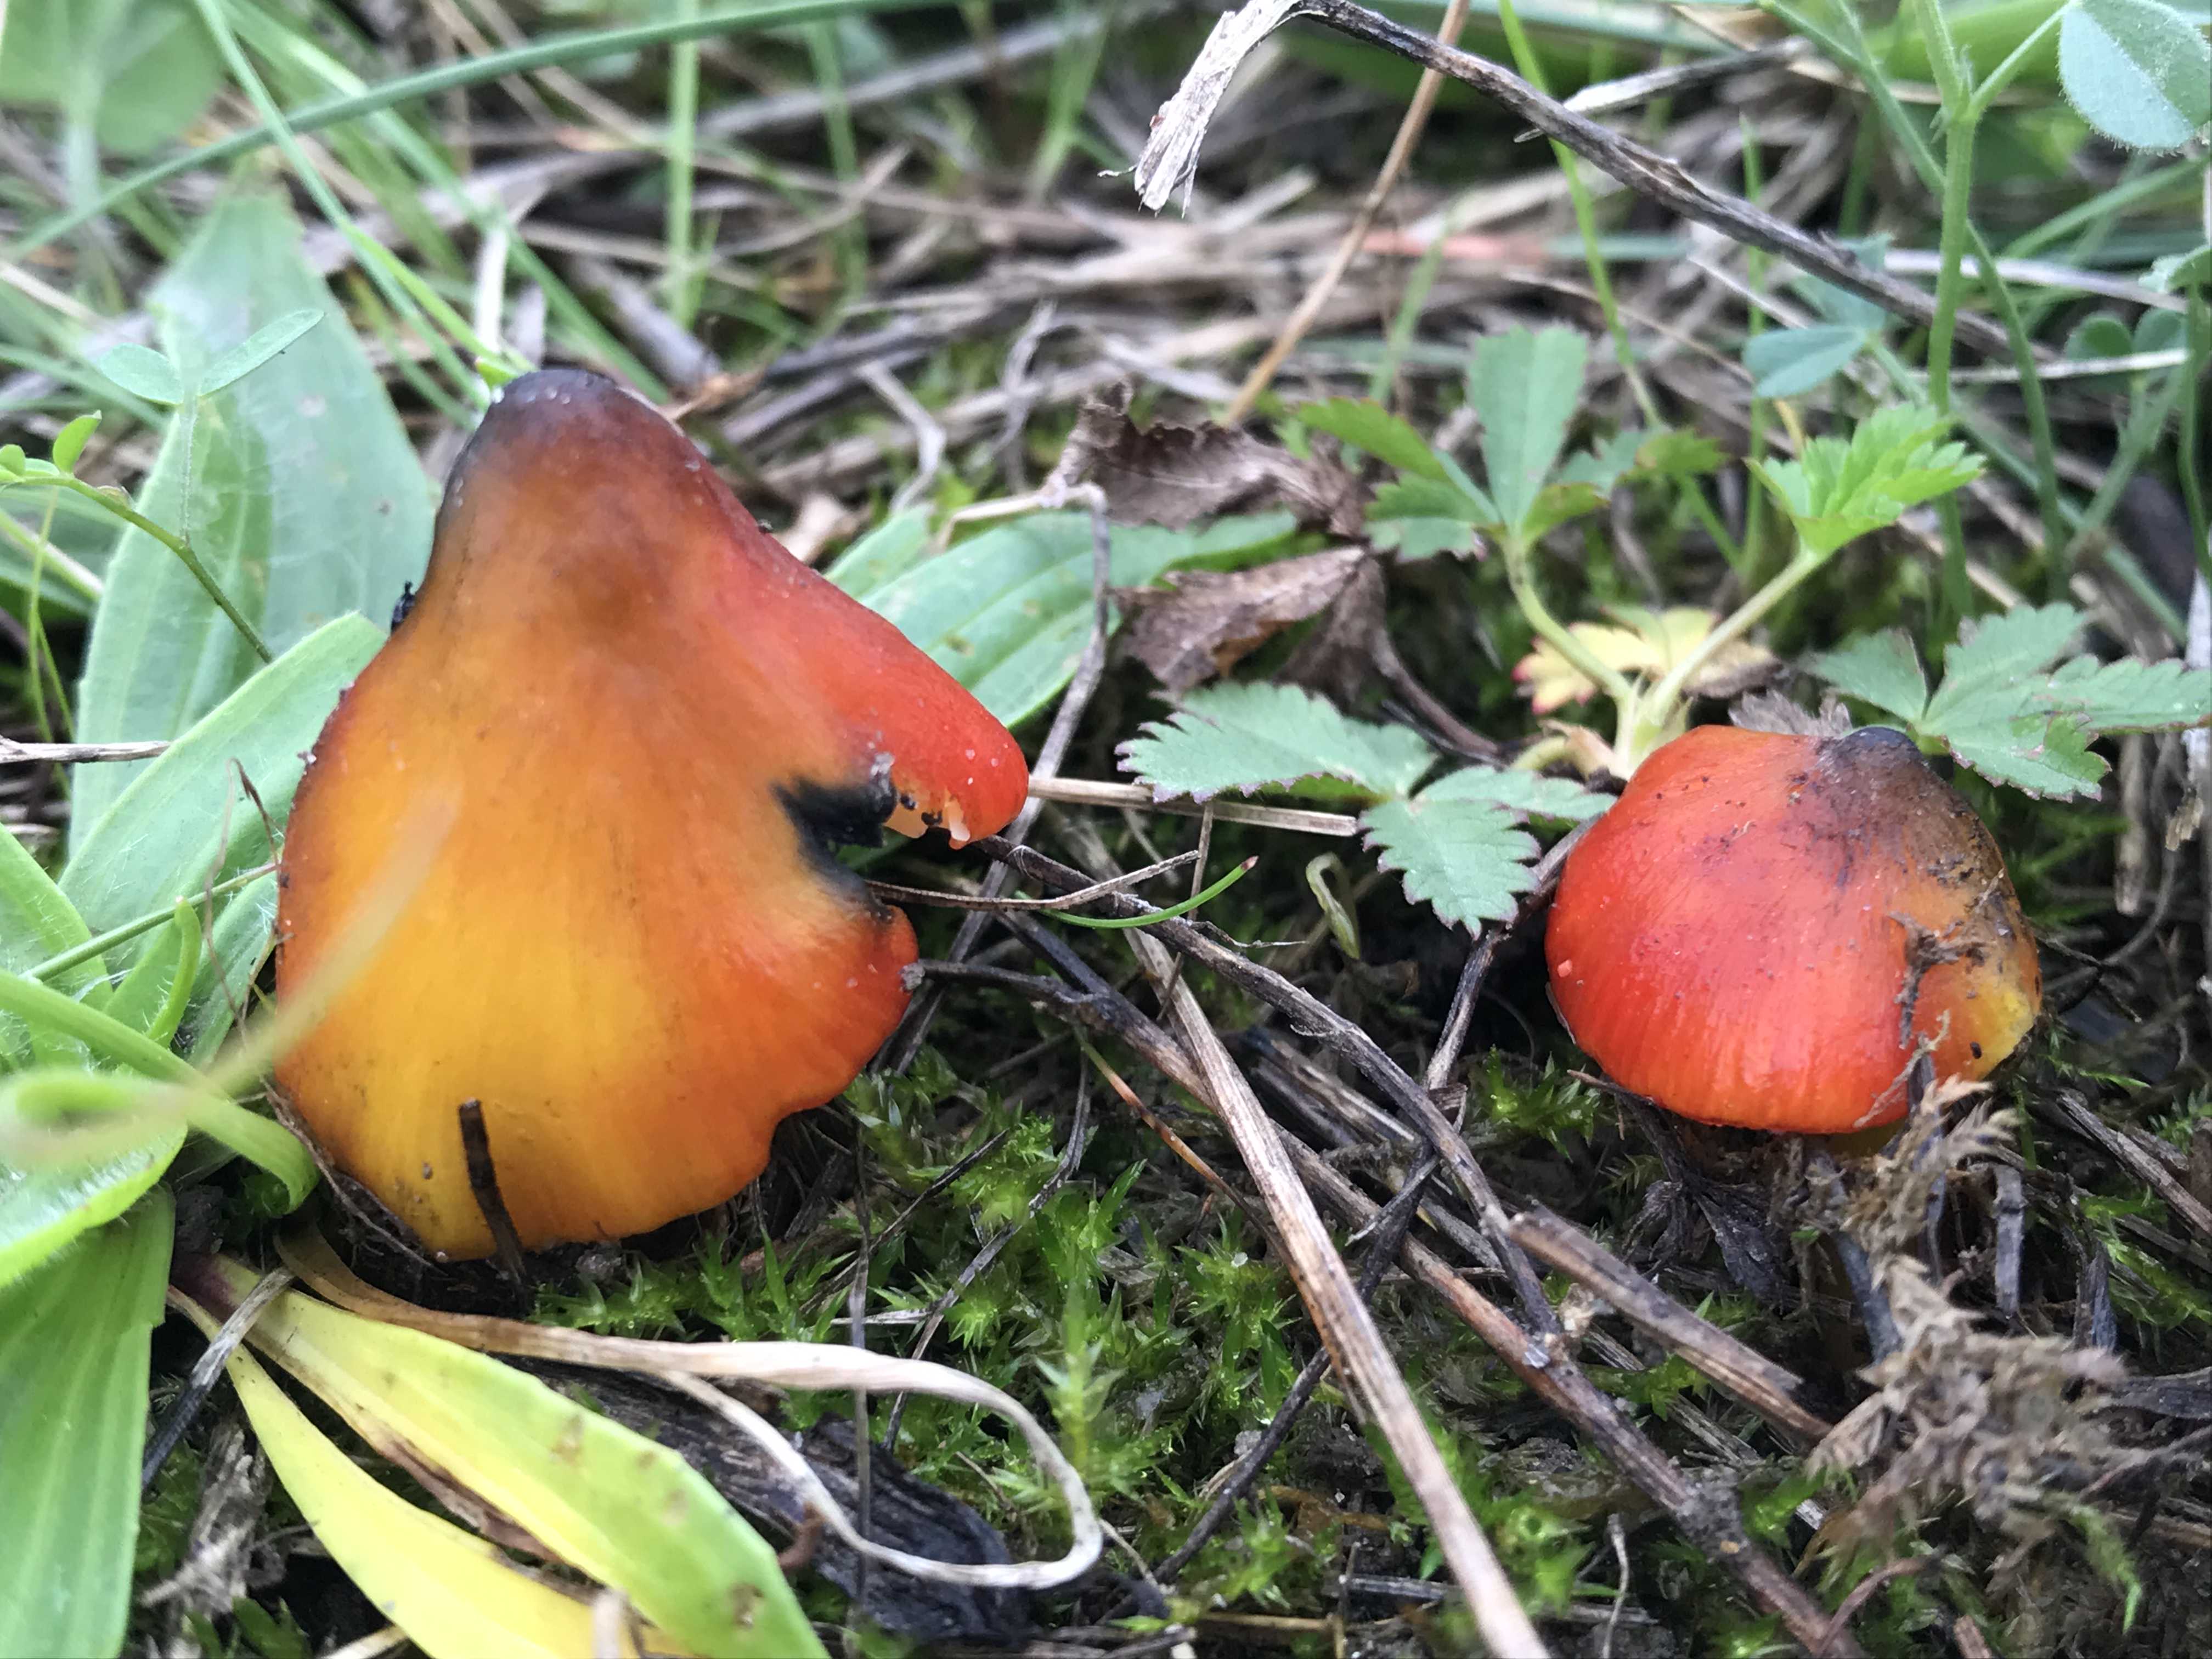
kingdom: Fungi
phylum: Basidiomycota
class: Agaricomycetes
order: Agaricales
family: Hygrophoraceae
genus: Hygrocybe
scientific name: Hygrocybe conica
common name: kegle-vokshat
